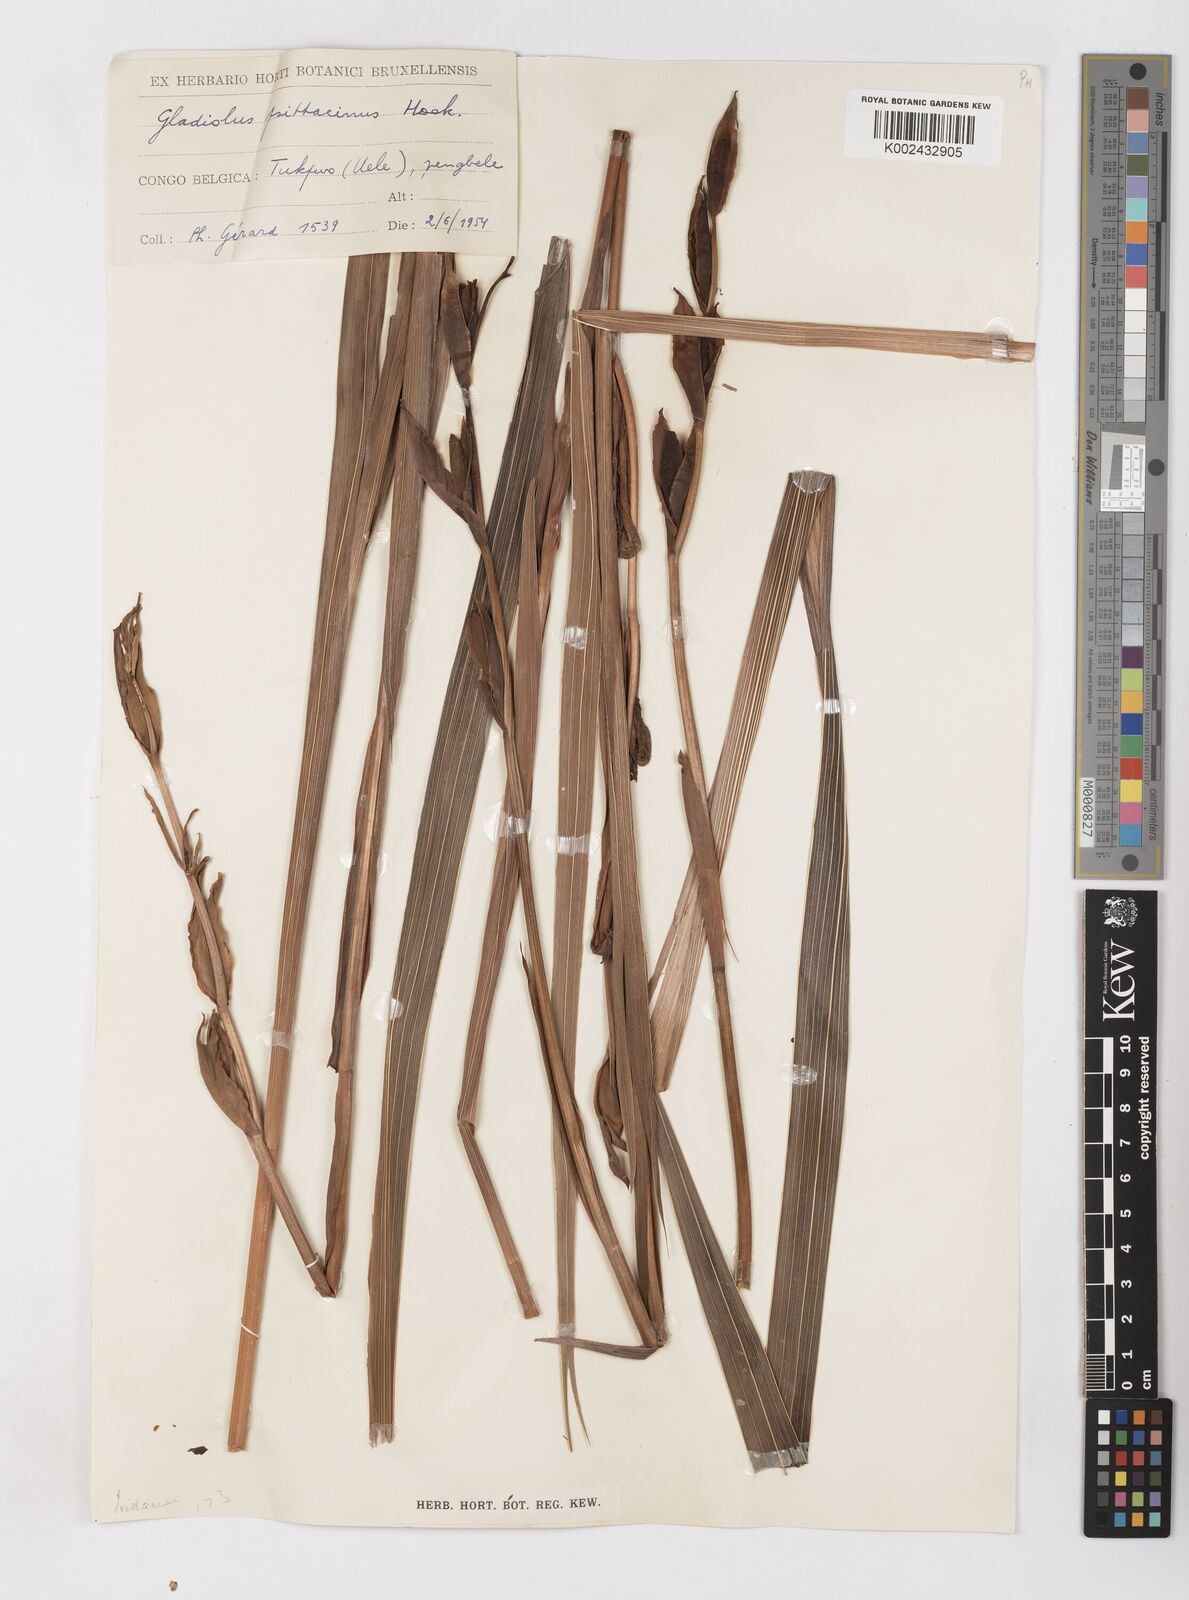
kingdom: Plantae
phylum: Tracheophyta
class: Liliopsida
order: Asparagales
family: Iridaceae
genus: Gladiolus
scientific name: Gladiolus dalenii
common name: Cornflag
